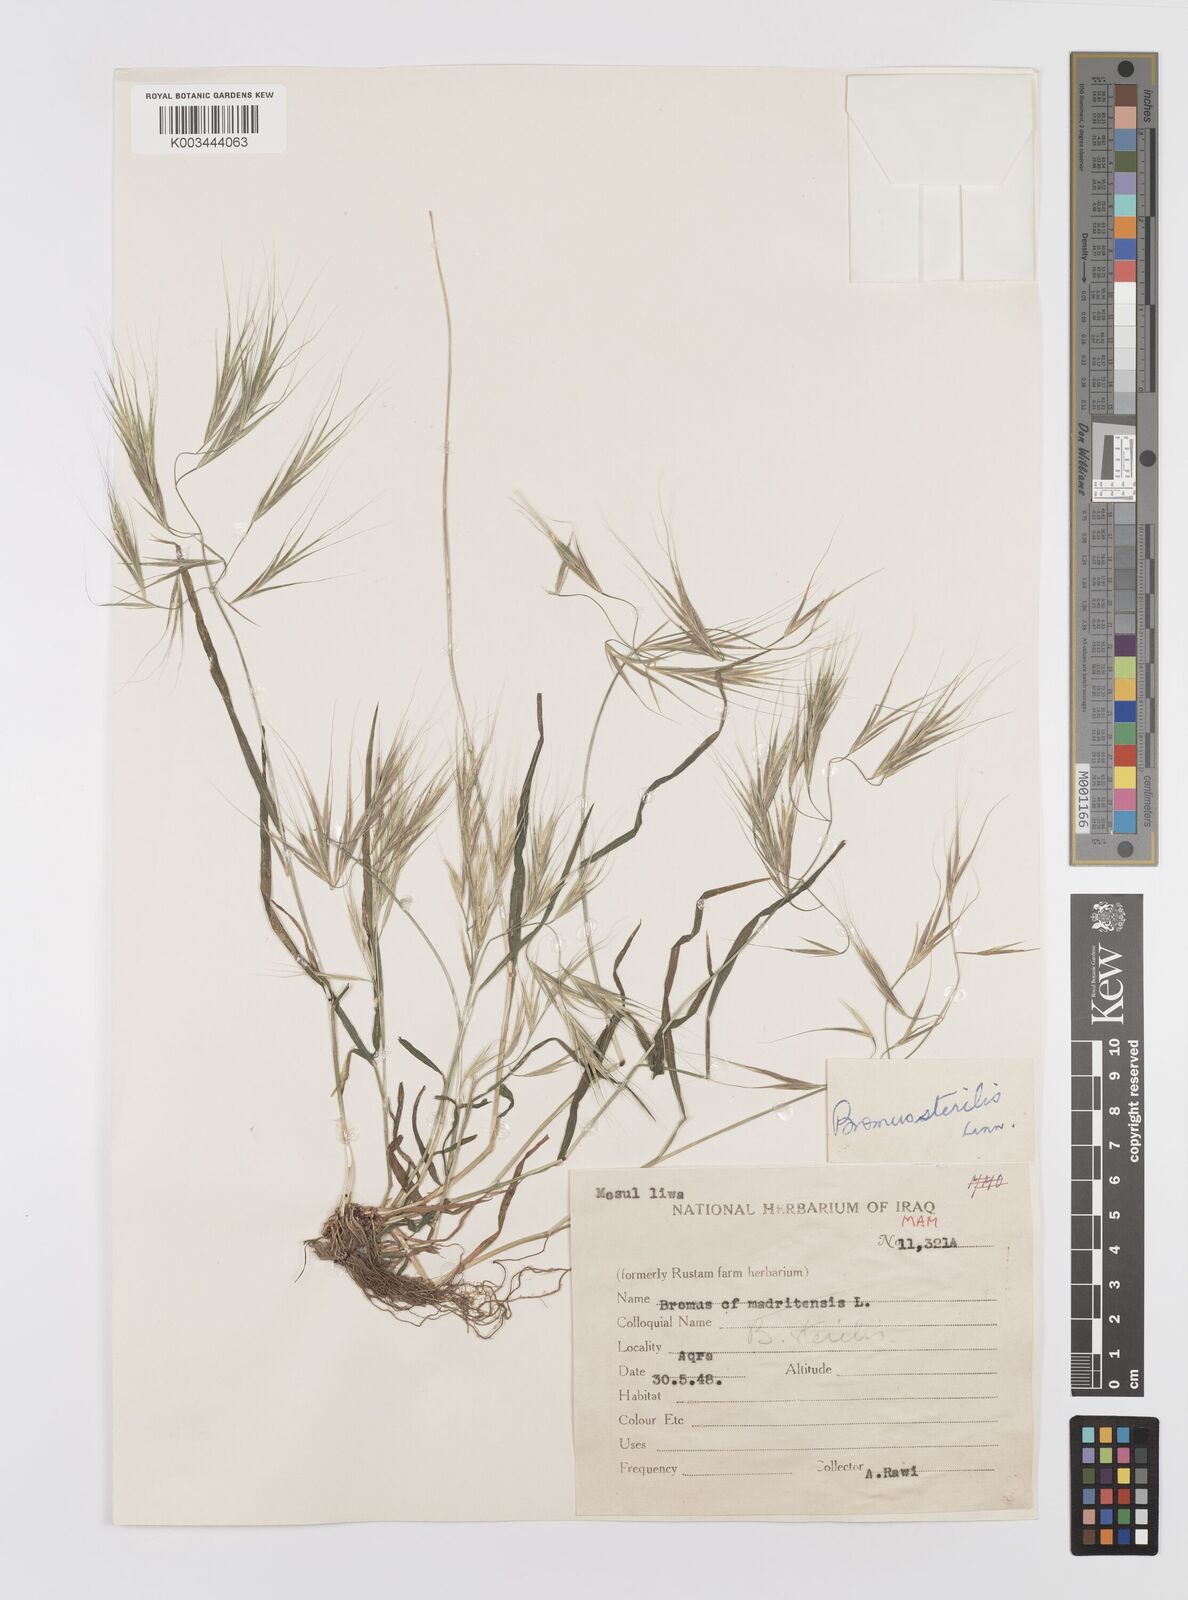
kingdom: Plantae
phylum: Tracheophyta
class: Liliopsida
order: Poales
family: Poaceae
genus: Bromus
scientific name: Bromus sterilis
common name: Poverty brome
